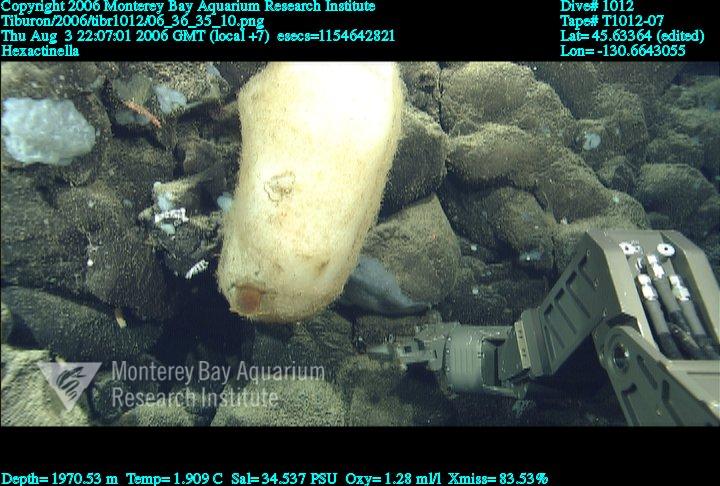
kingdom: Animalia
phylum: Porifera
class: Hexactinellida
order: Sceptrulophora
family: Tretodictyidae
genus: Hexactinella
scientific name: Hexactinella
